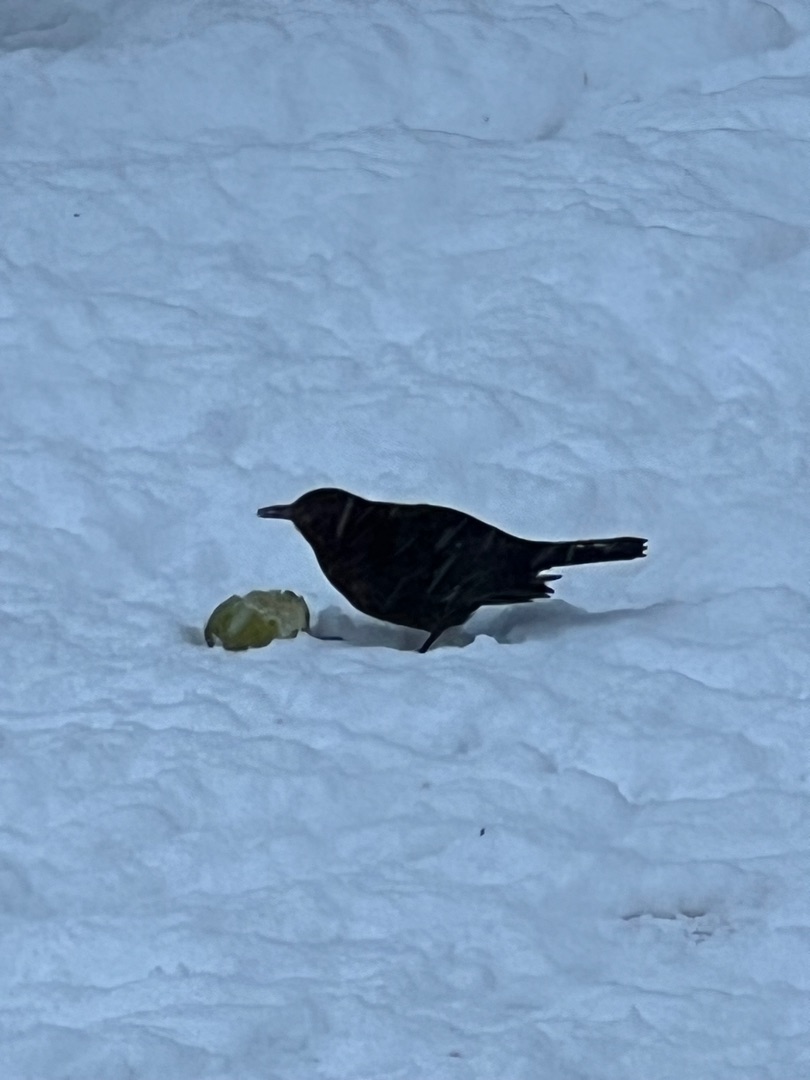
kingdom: Animalia
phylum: Chordata
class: Aves
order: Passeriformes
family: Turdidae
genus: Turdus
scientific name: Turdus merula
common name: Solsort
